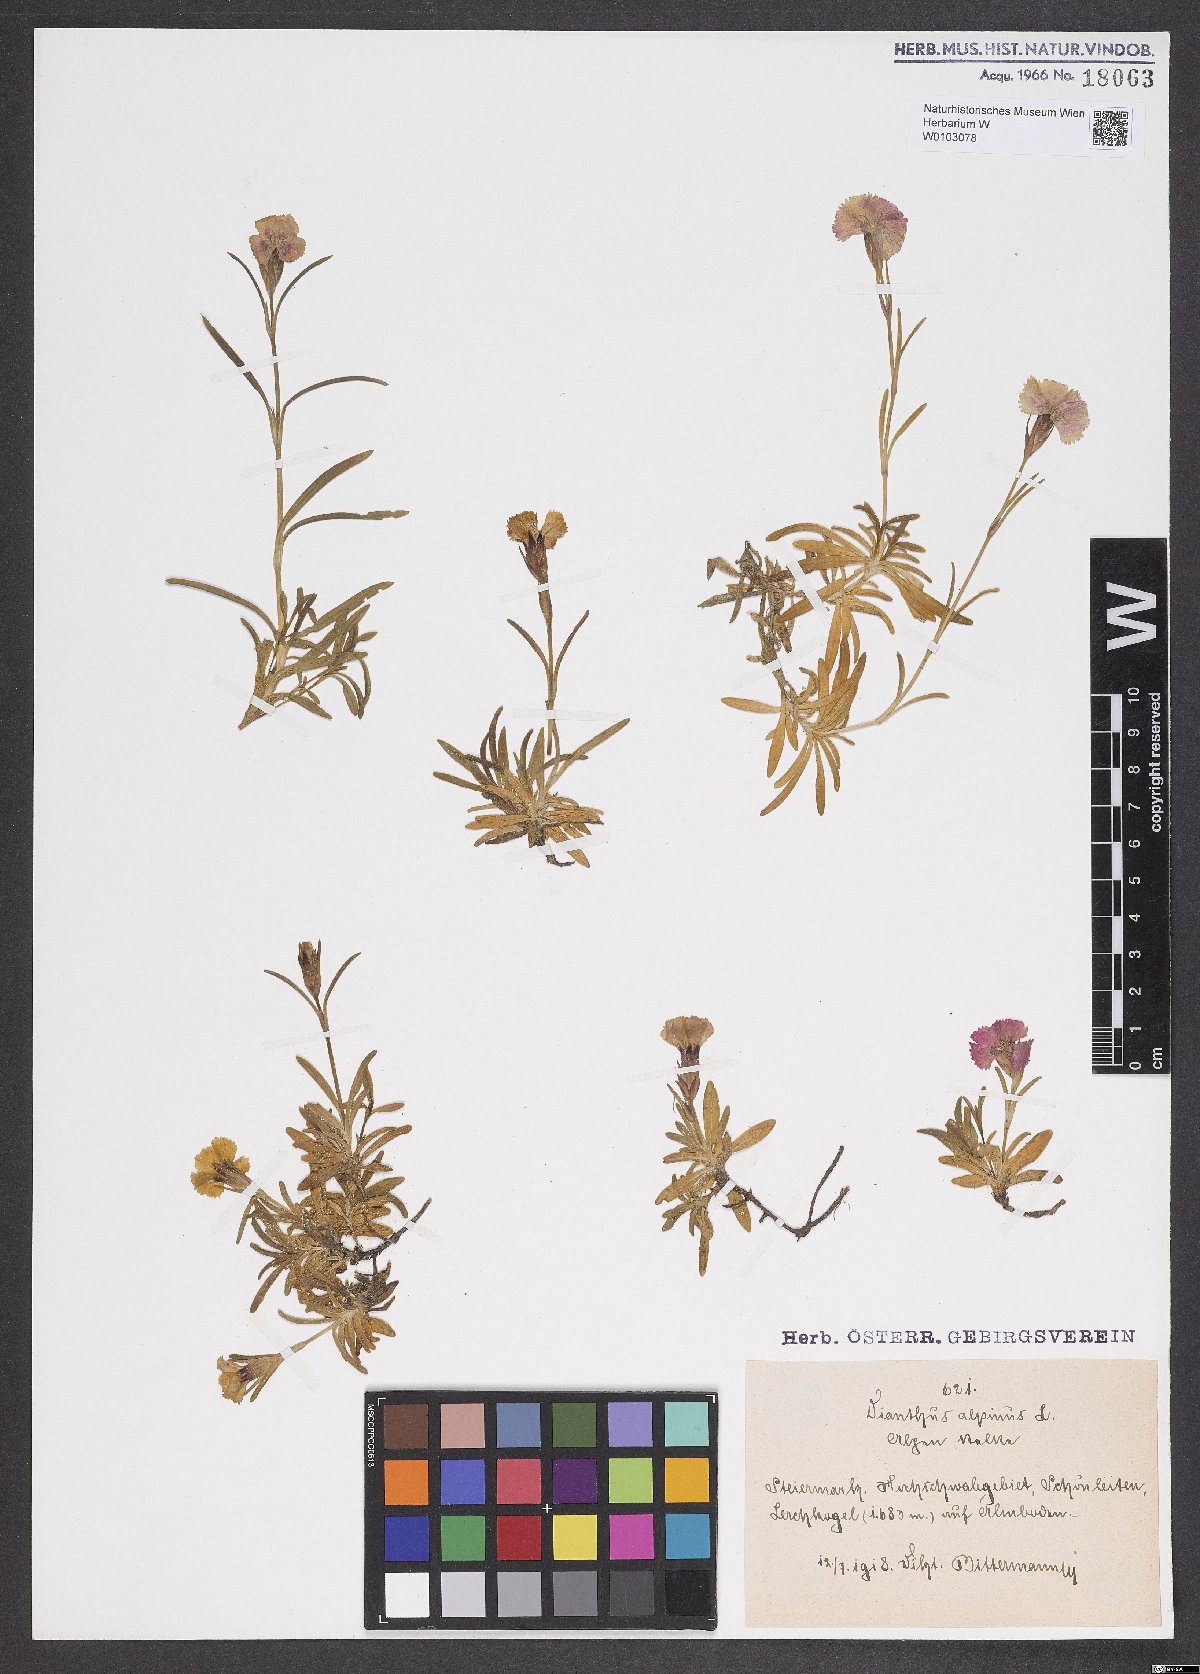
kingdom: Plantae
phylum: Tracheophyta
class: Magnoliopsida
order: Caryophyllales
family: Caryophyllaceae
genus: Dianthus
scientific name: Dianthus alpinus
